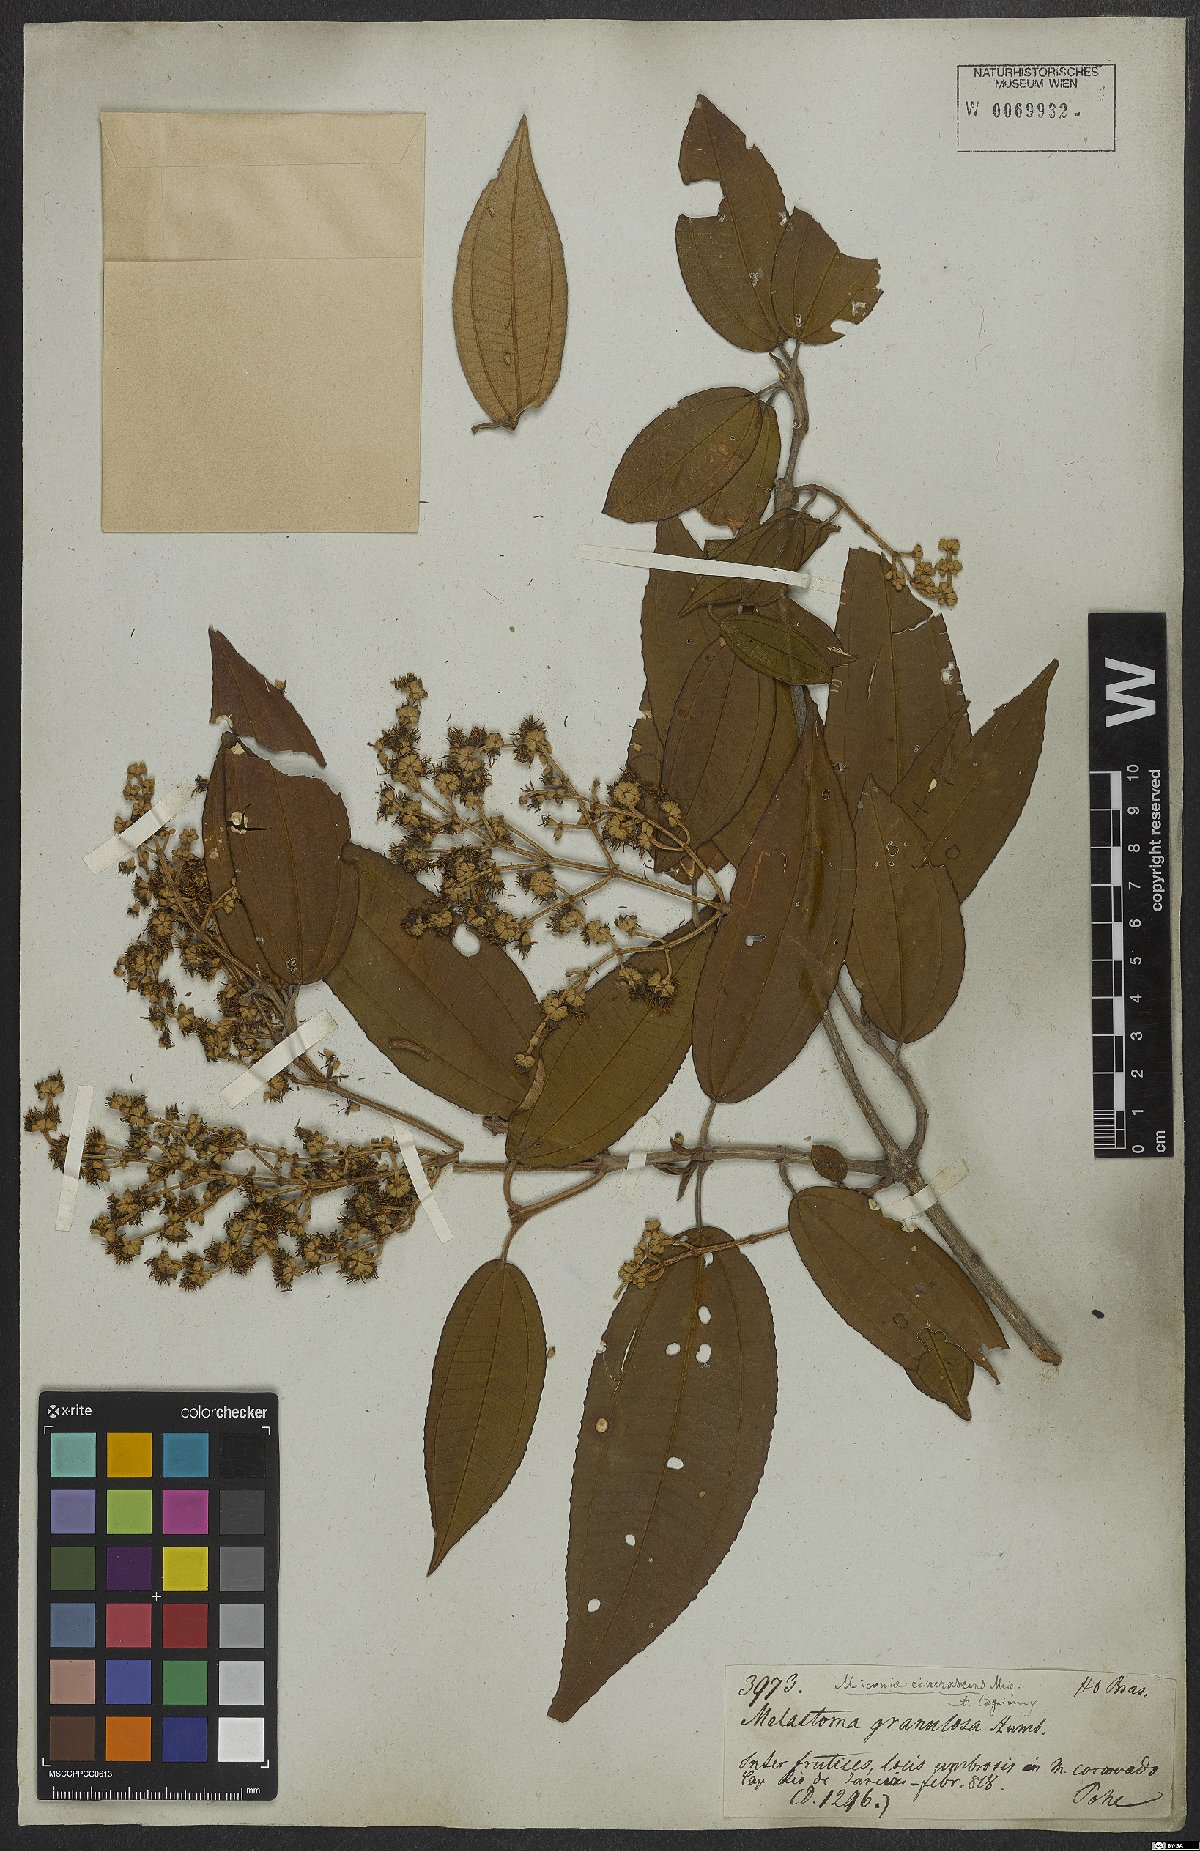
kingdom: Plantae
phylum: Tracheophyta
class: Magnoliopsida
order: Myrtales
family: Melastomataceae
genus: Miconia
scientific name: Miconia cinerascens
